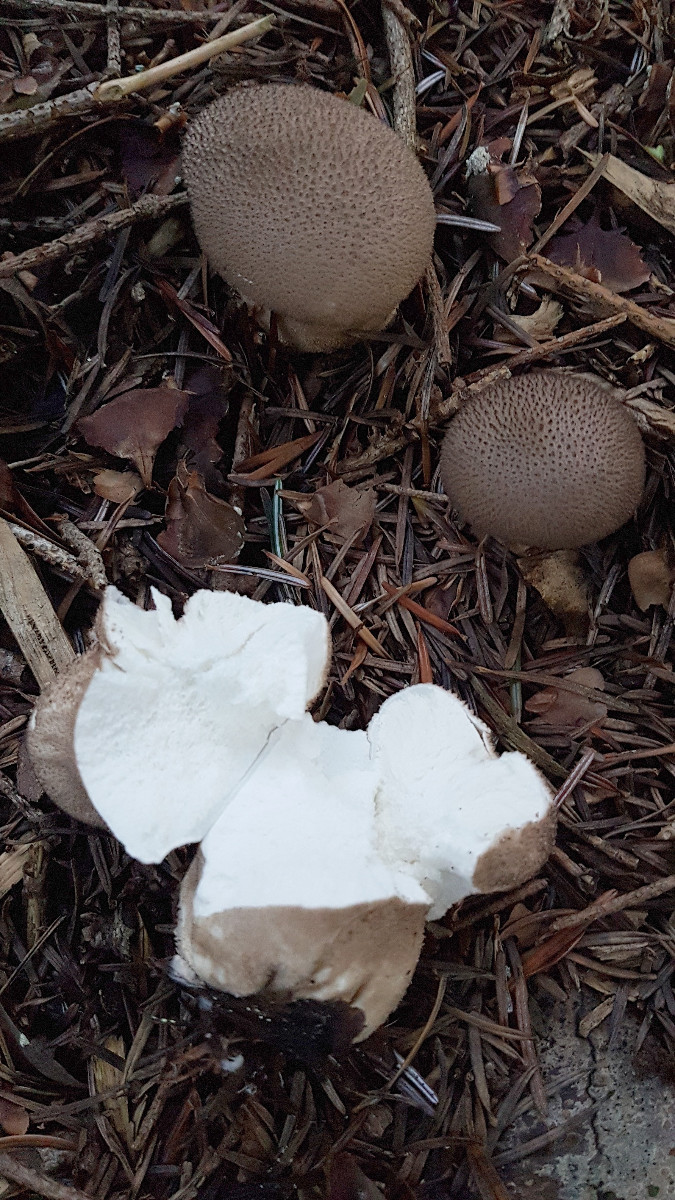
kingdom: Fungi
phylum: Basidiomycota
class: Agaricomycetes
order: Agaricales
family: Lycoperdaceae
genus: Lycoperdon
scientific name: Lycoperdon nigrescens
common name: sortagtig støvbold
